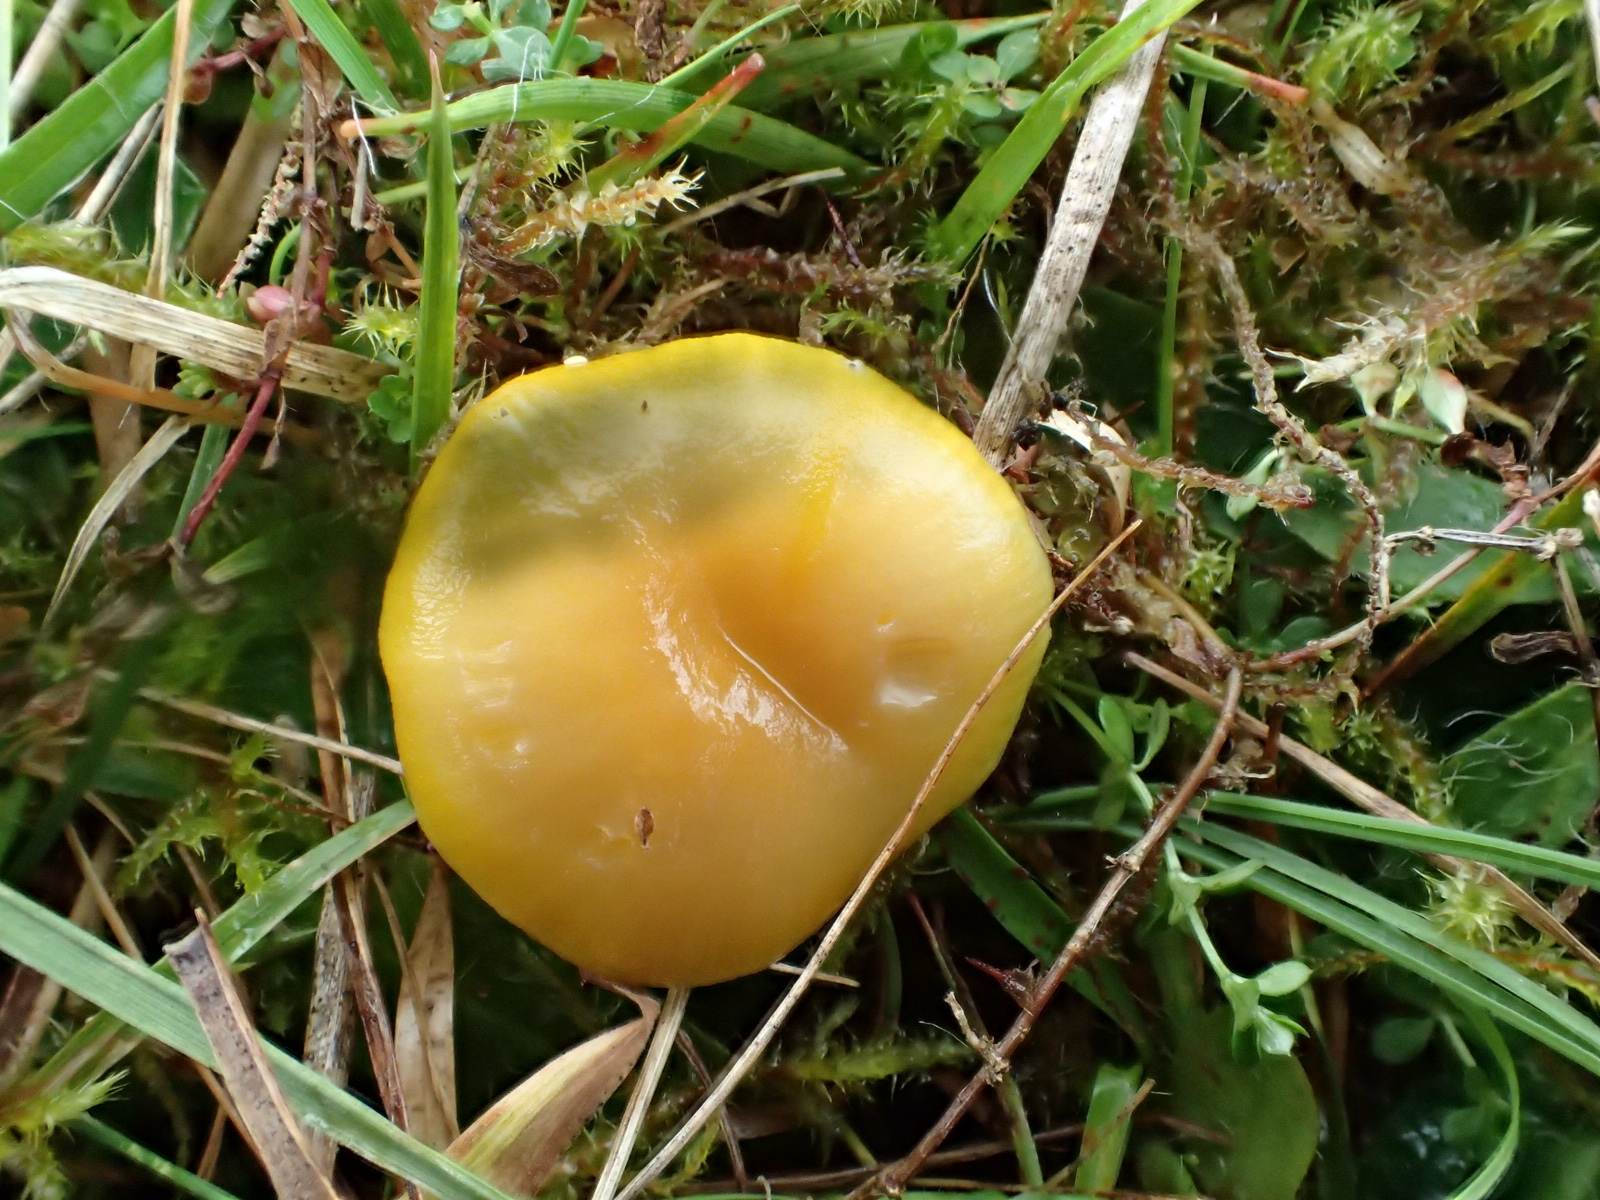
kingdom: Fungi
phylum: Basidiomycota
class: Agaricomycetes
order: Agaricales
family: Hygrophoraceae
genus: Hygrocybe
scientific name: Hygrocybe ceracea
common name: voksgul vokshat
